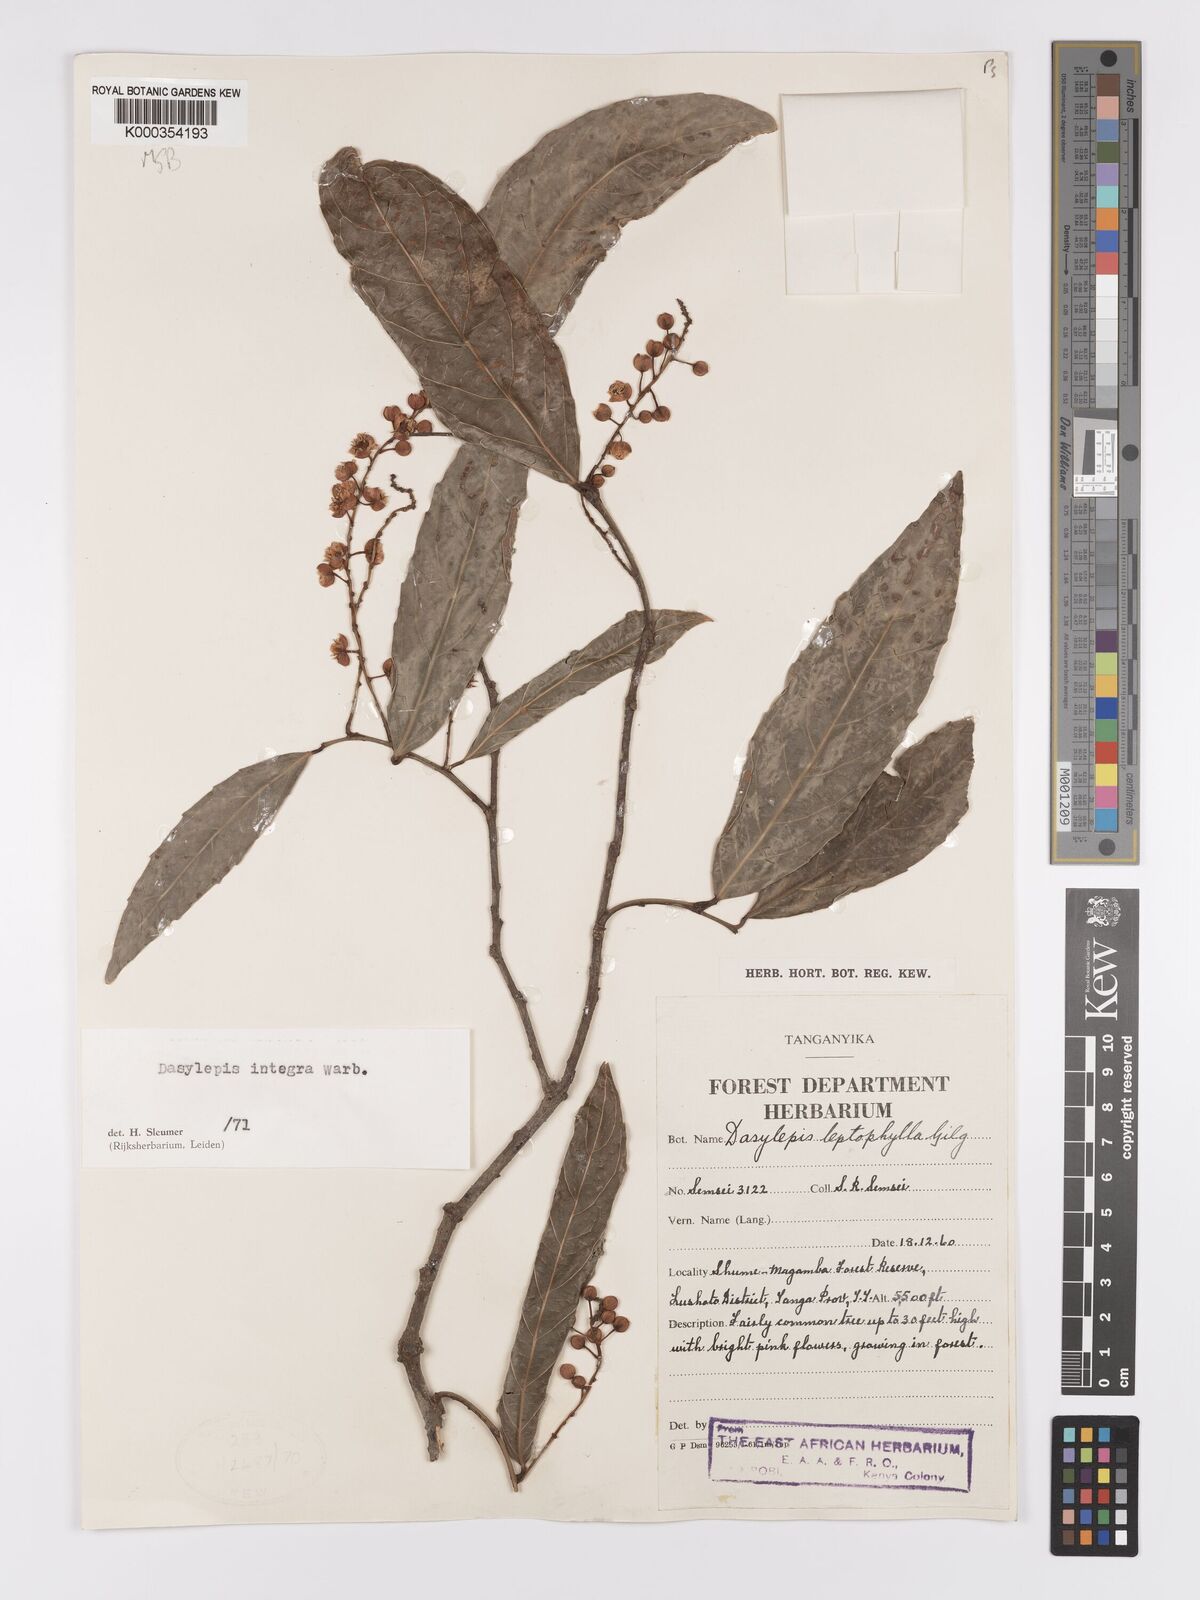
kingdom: Plantae
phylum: Tracheophyta
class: Magnoliopsida
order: Malpighiales
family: Achariaceae
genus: Dasylepis
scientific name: Dasylepis integra
